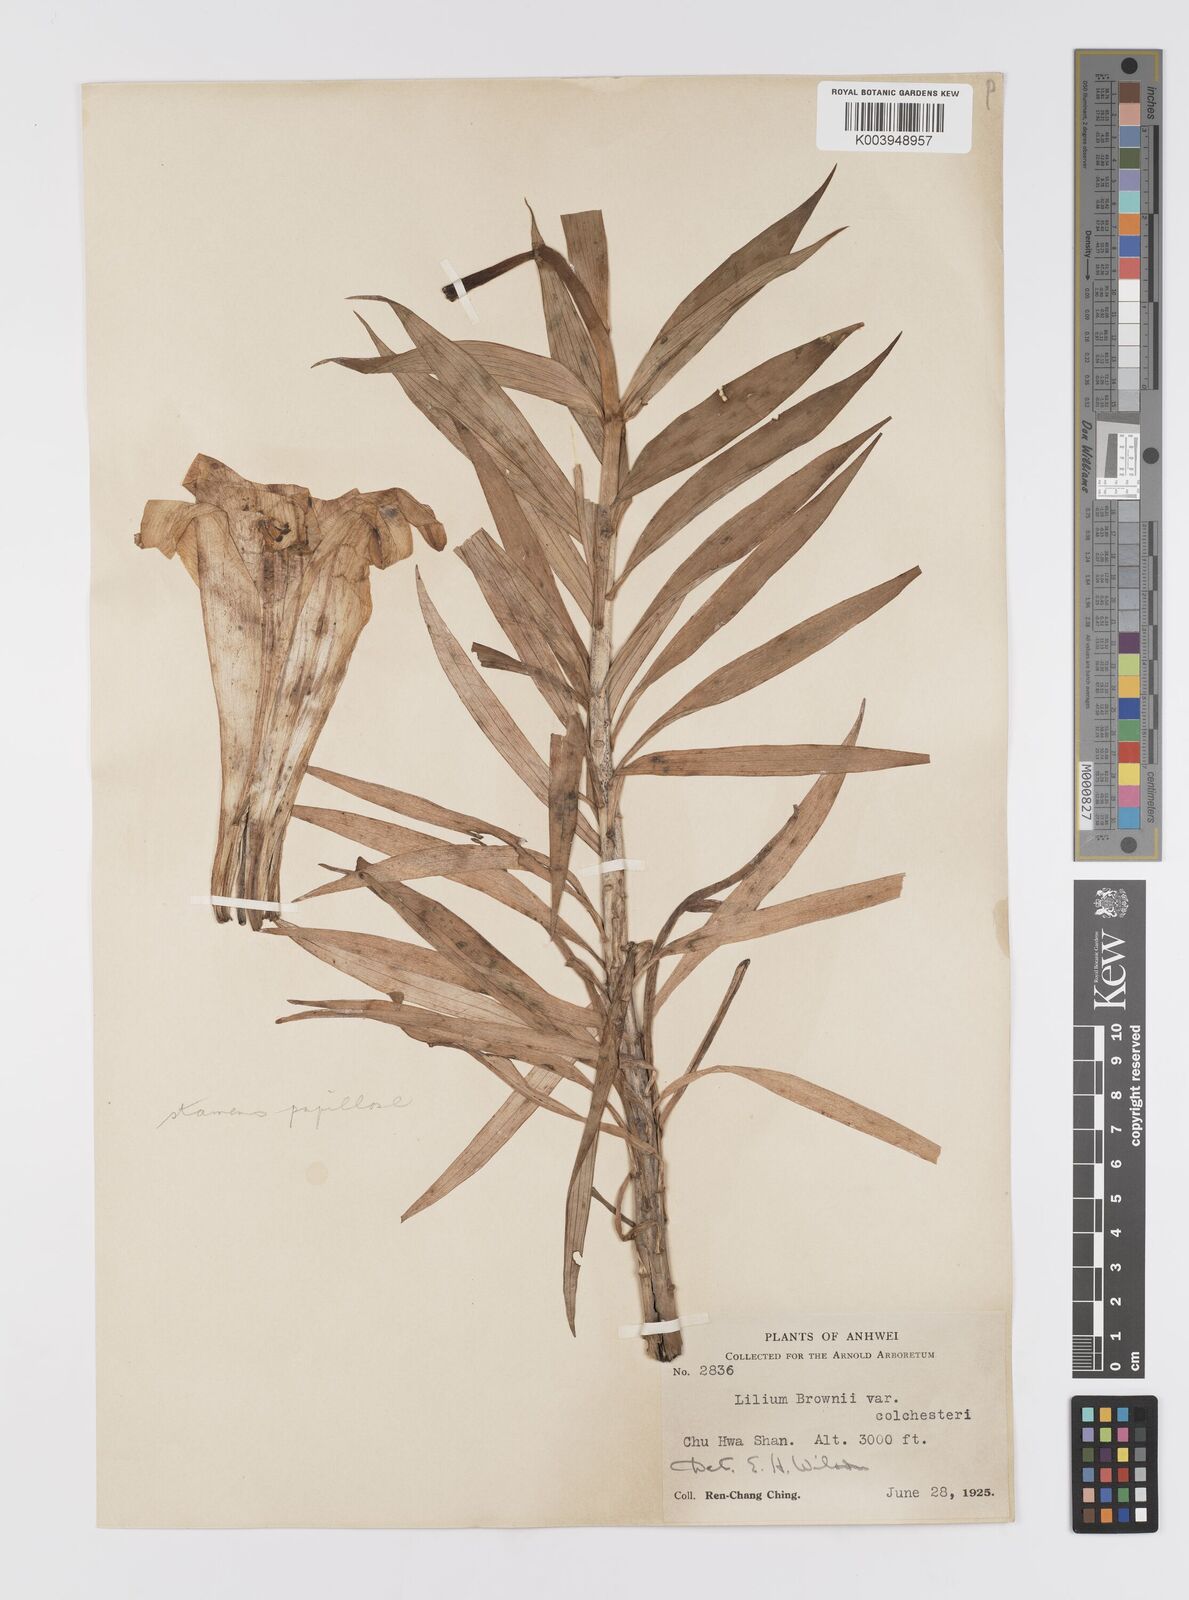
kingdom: Plantae
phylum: Tracheophyta
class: Liliopsida
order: Liliales
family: Liliaceae
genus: Lilium
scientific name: Lilium japonicum
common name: Japanese lily
